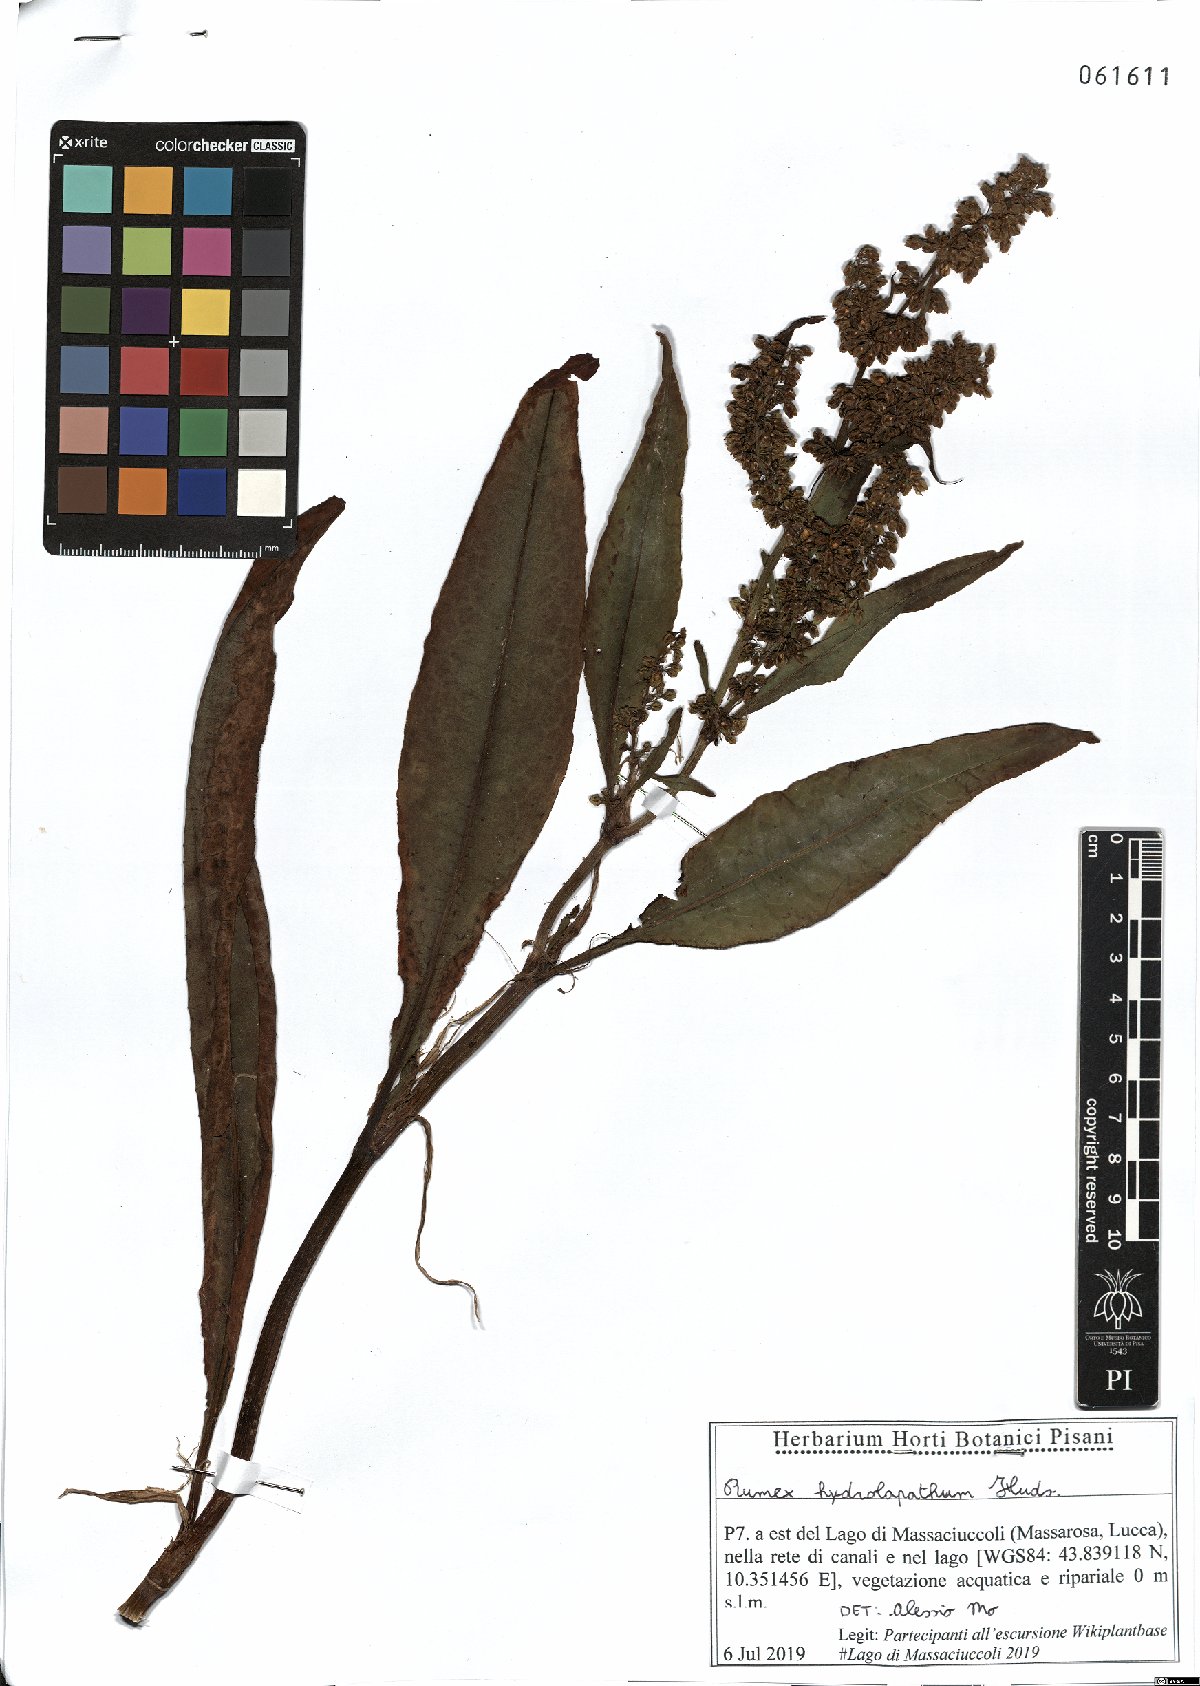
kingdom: Plantae
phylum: Tracheophyta
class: Magnoliopsida
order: Caryophyllales
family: Polygonaceae
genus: Rumex
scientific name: Rumex hydrolapathum
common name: Water dock
